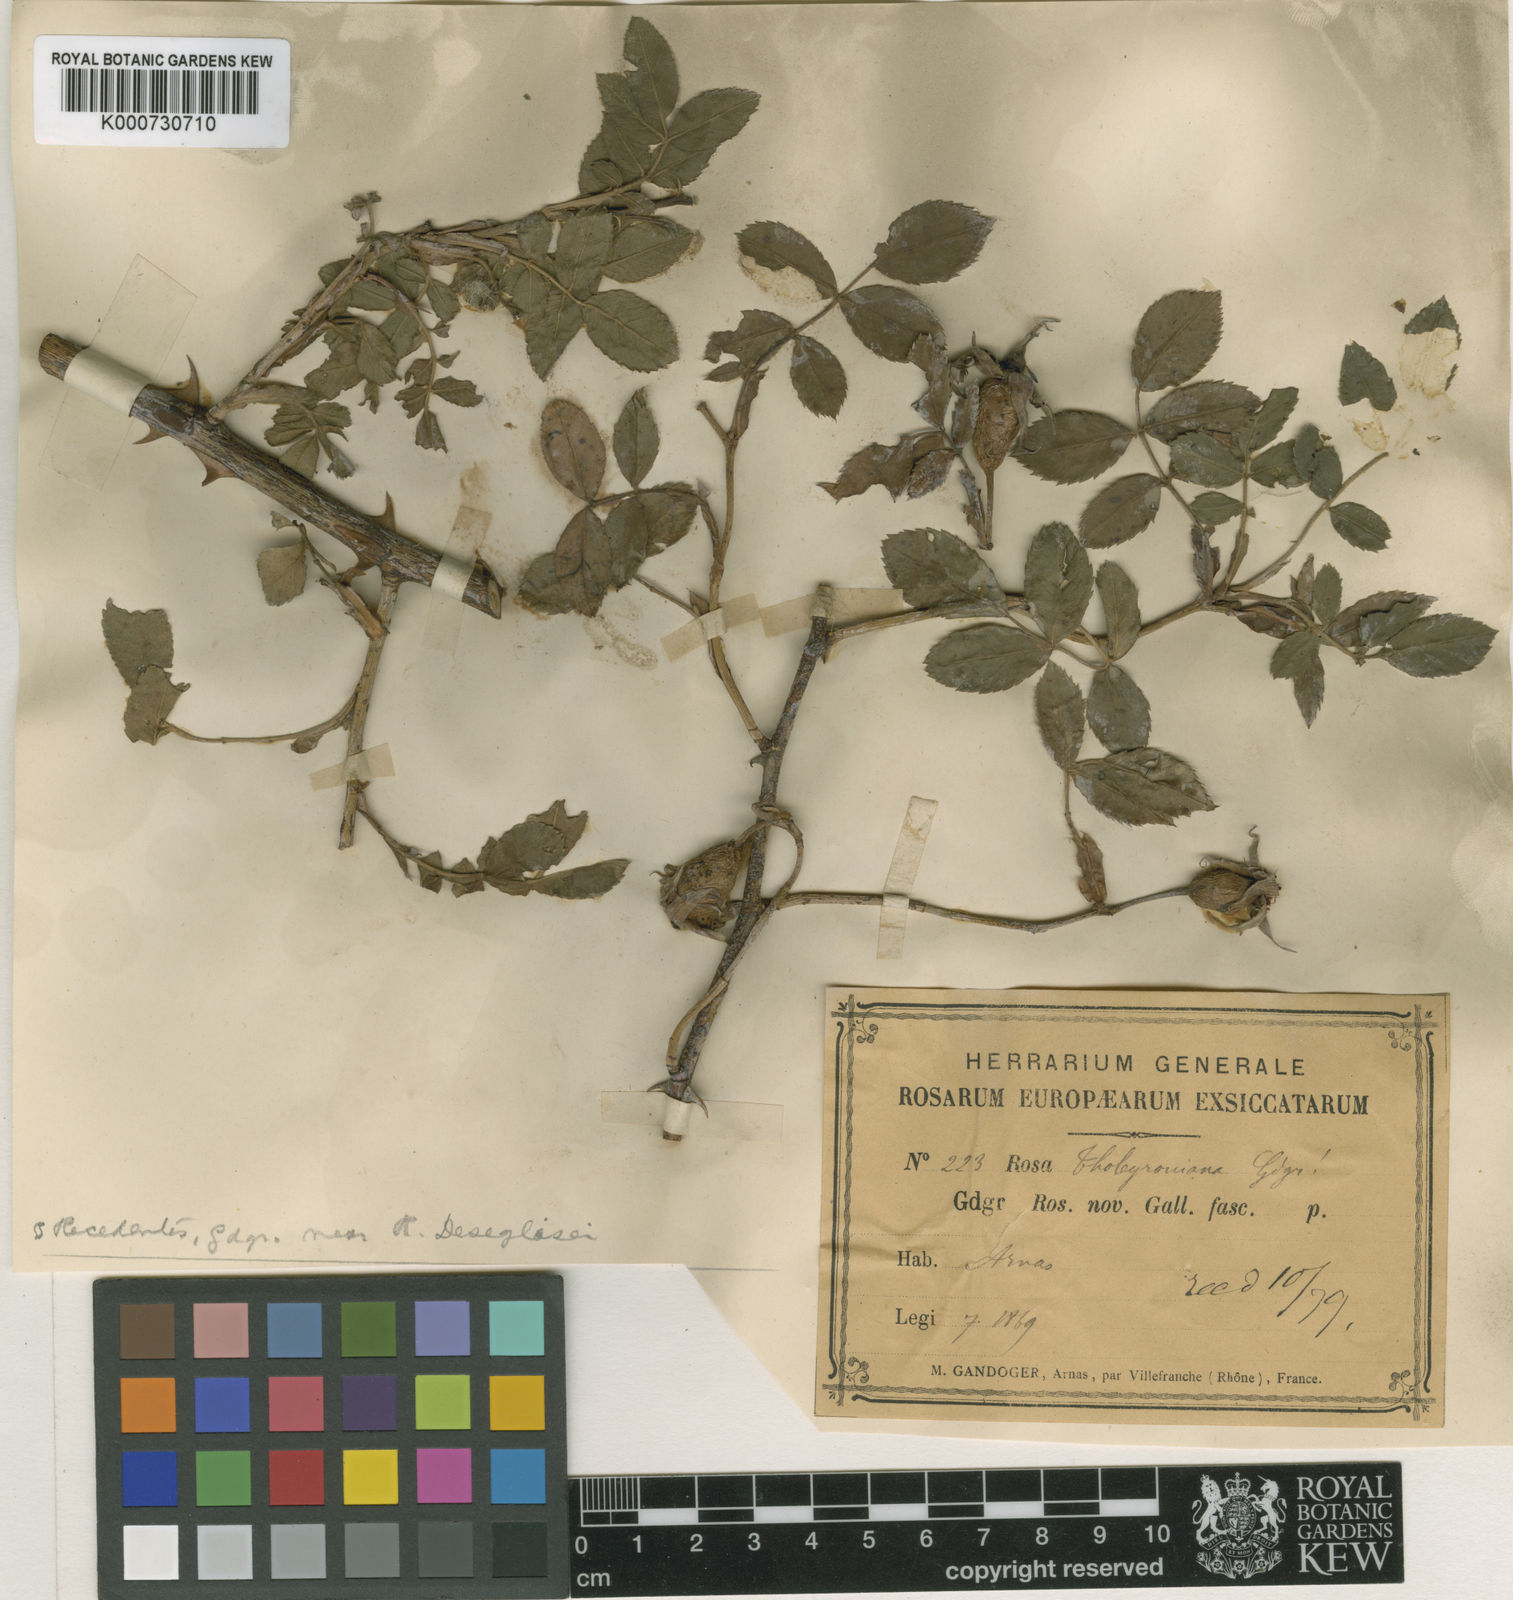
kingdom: Plantae
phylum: Tracheophyta
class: Magnoliopsida
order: Rosales
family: Rosaceae
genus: Rosa
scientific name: Rosa stylosa
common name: Short-styled field-rose
